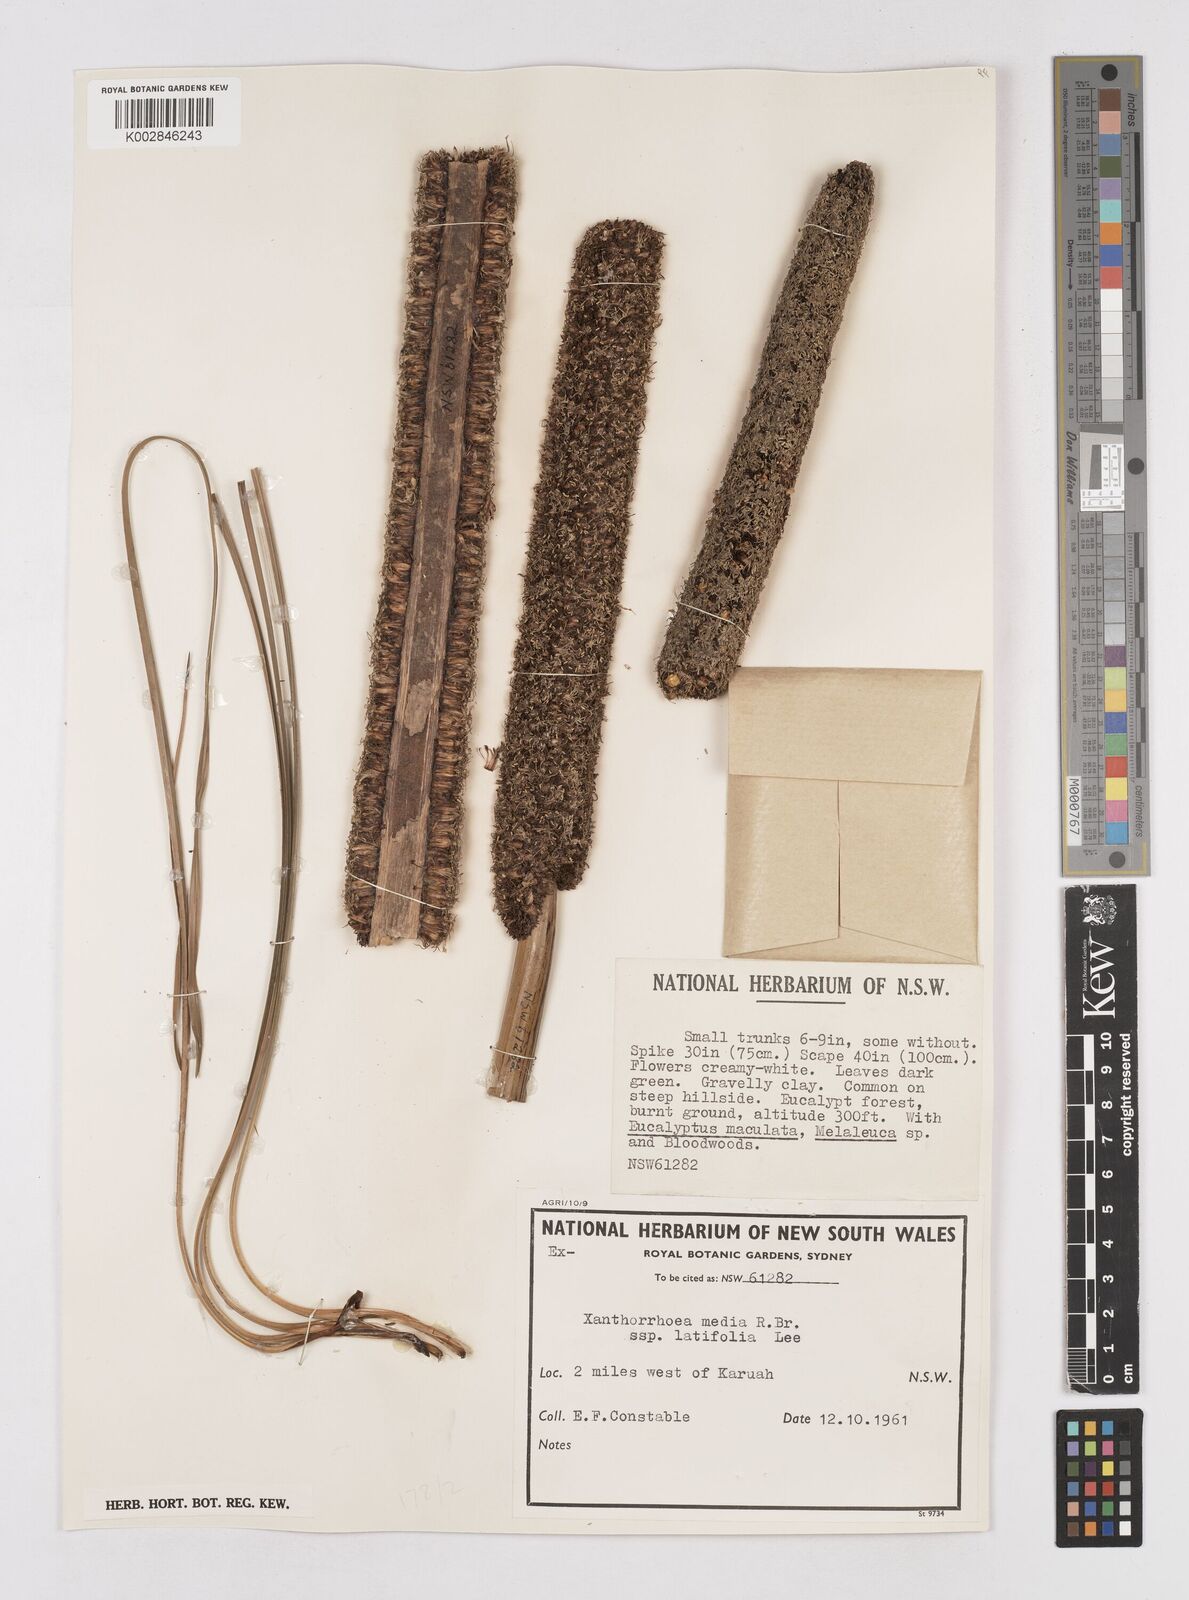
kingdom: Plantae
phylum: Tracheophyta
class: Liliopsida
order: Asparagales
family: Asphodelaceae
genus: Xanthorrhoea
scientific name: Xanthorrhoea latifolia
